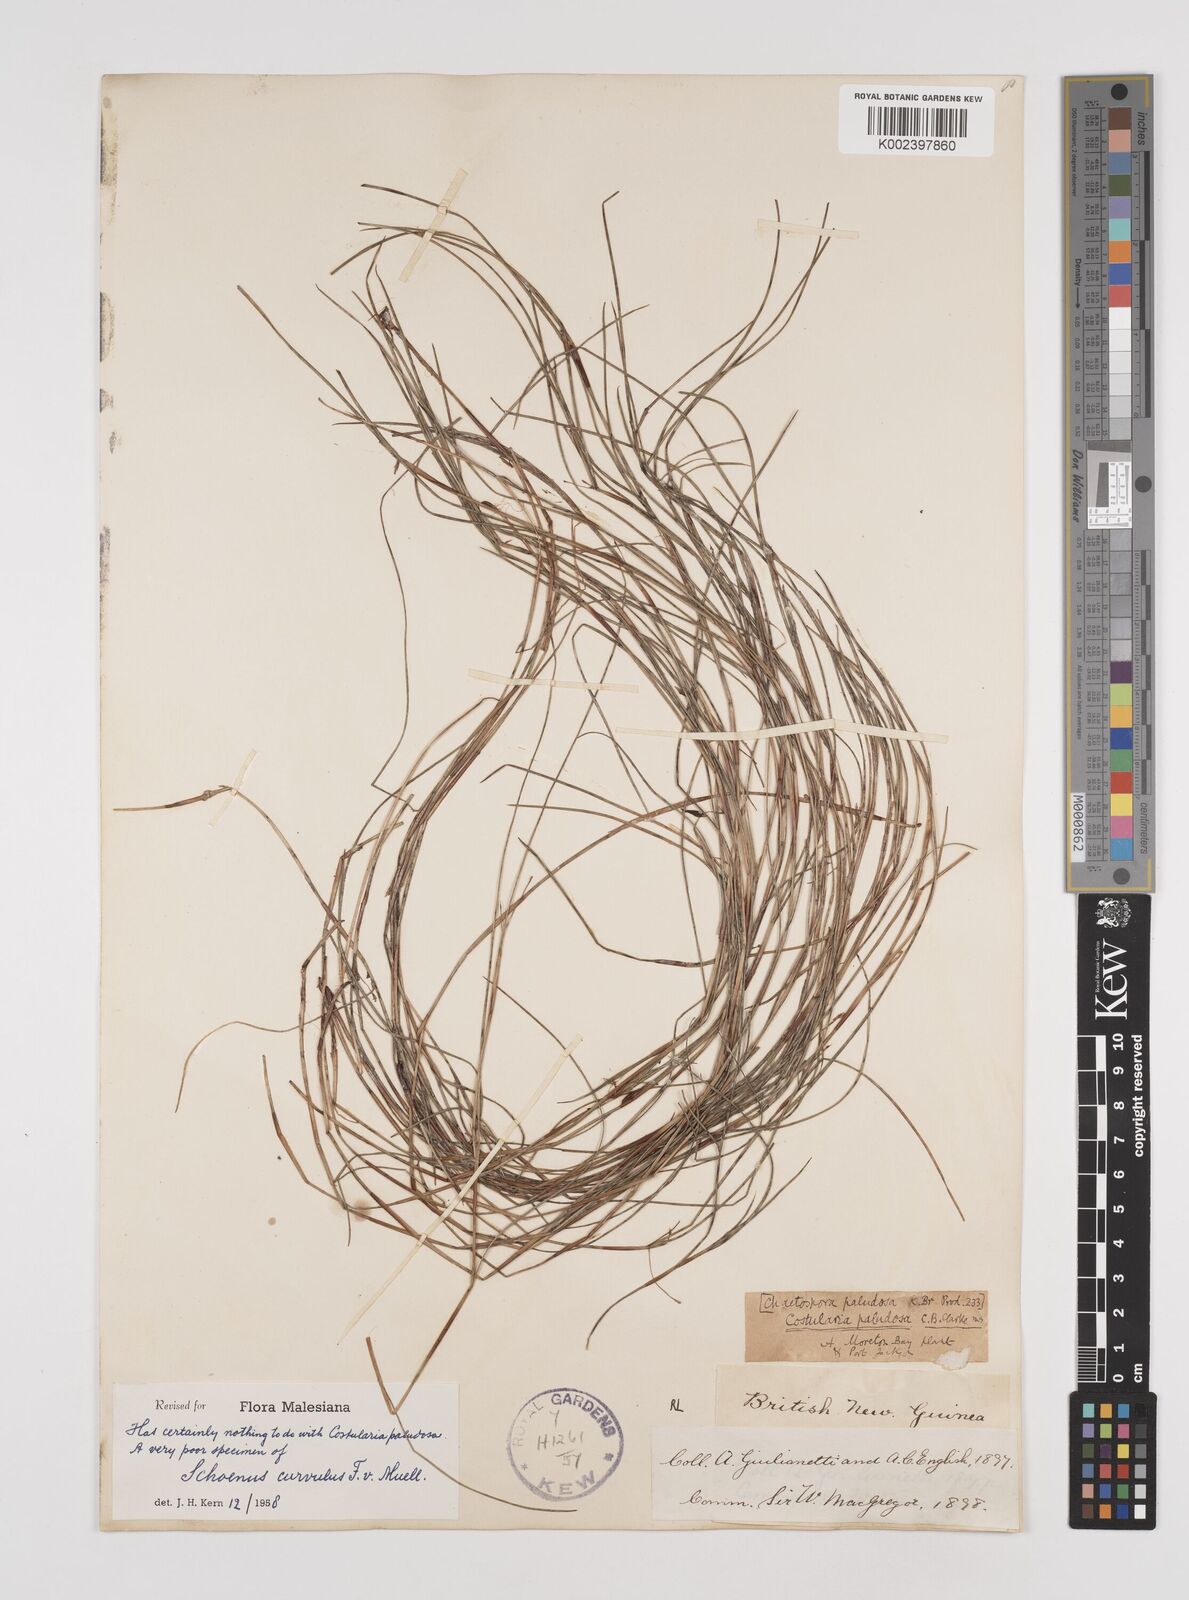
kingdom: Plantae
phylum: Tracheophyta
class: Liliopsida
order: Poales
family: Cyperaceae
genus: Schoenus
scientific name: Schoenus curvulus
